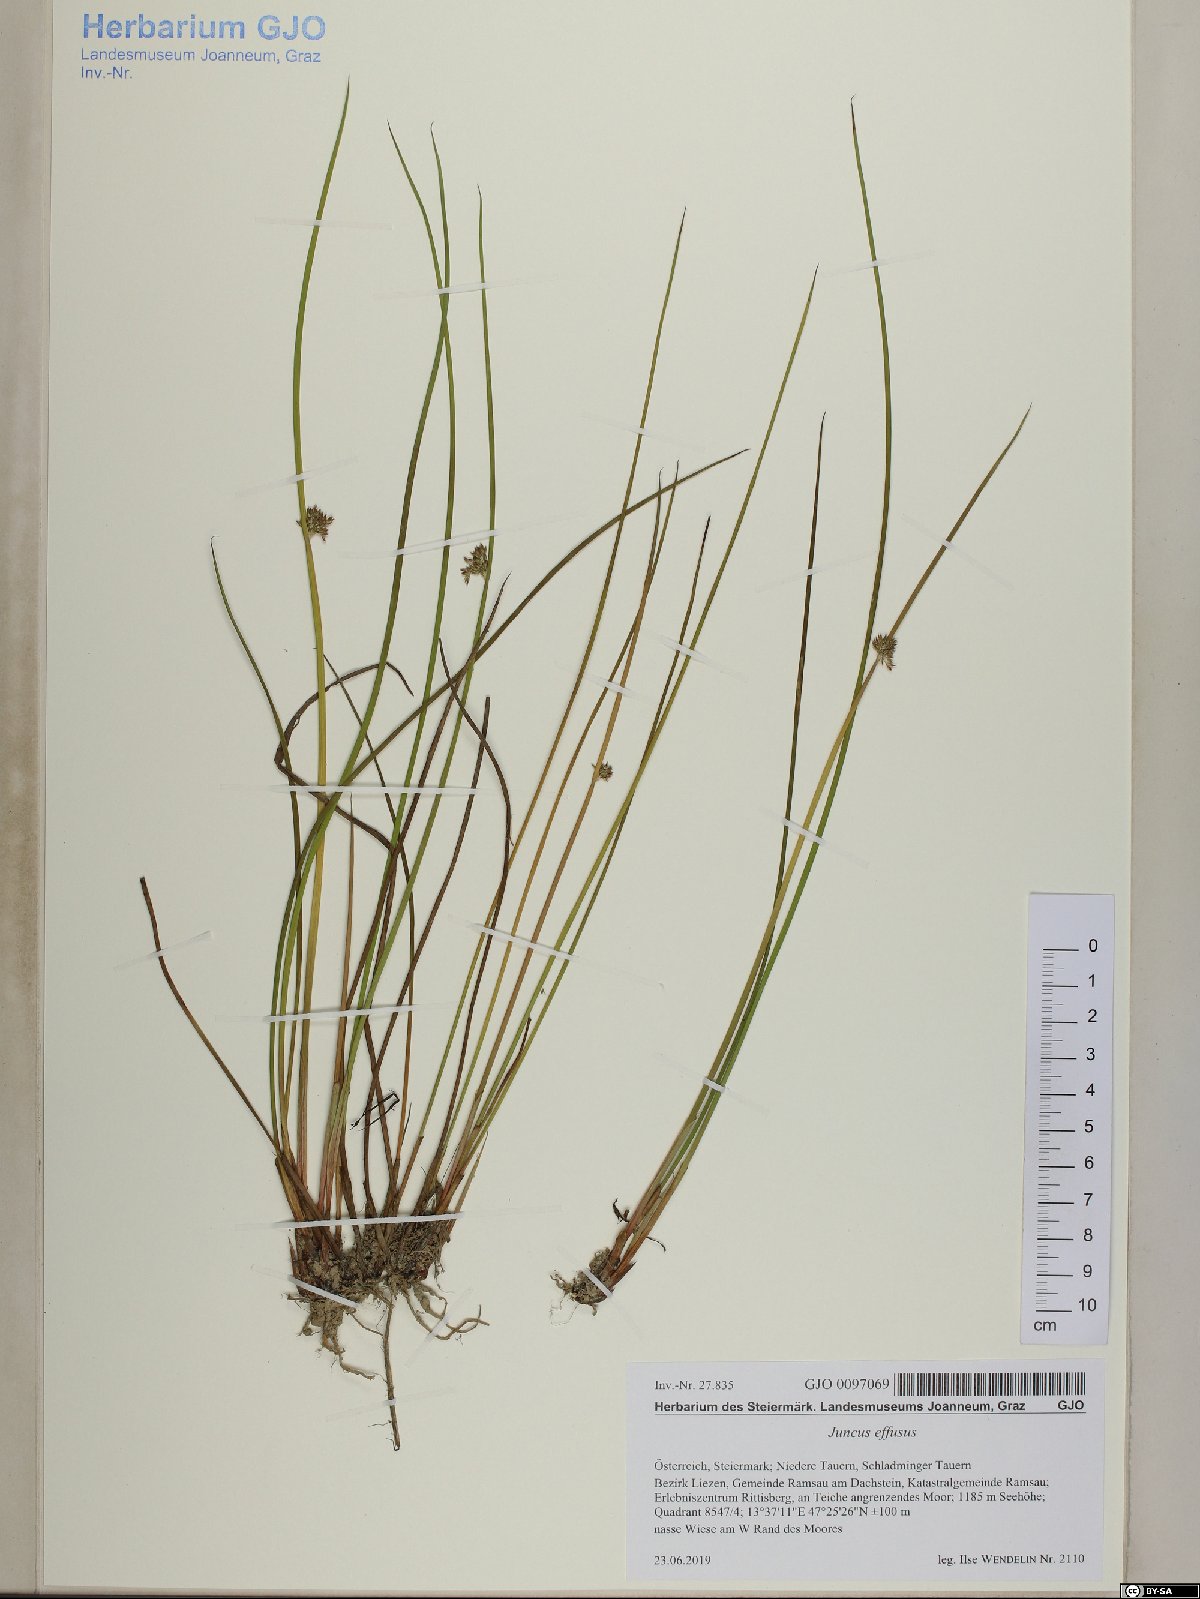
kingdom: Plantae
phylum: Tracheophyta
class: Liliopsida
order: Poales
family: Juncaceae
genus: Juncus
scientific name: Juncus effusus
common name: Soft rush
